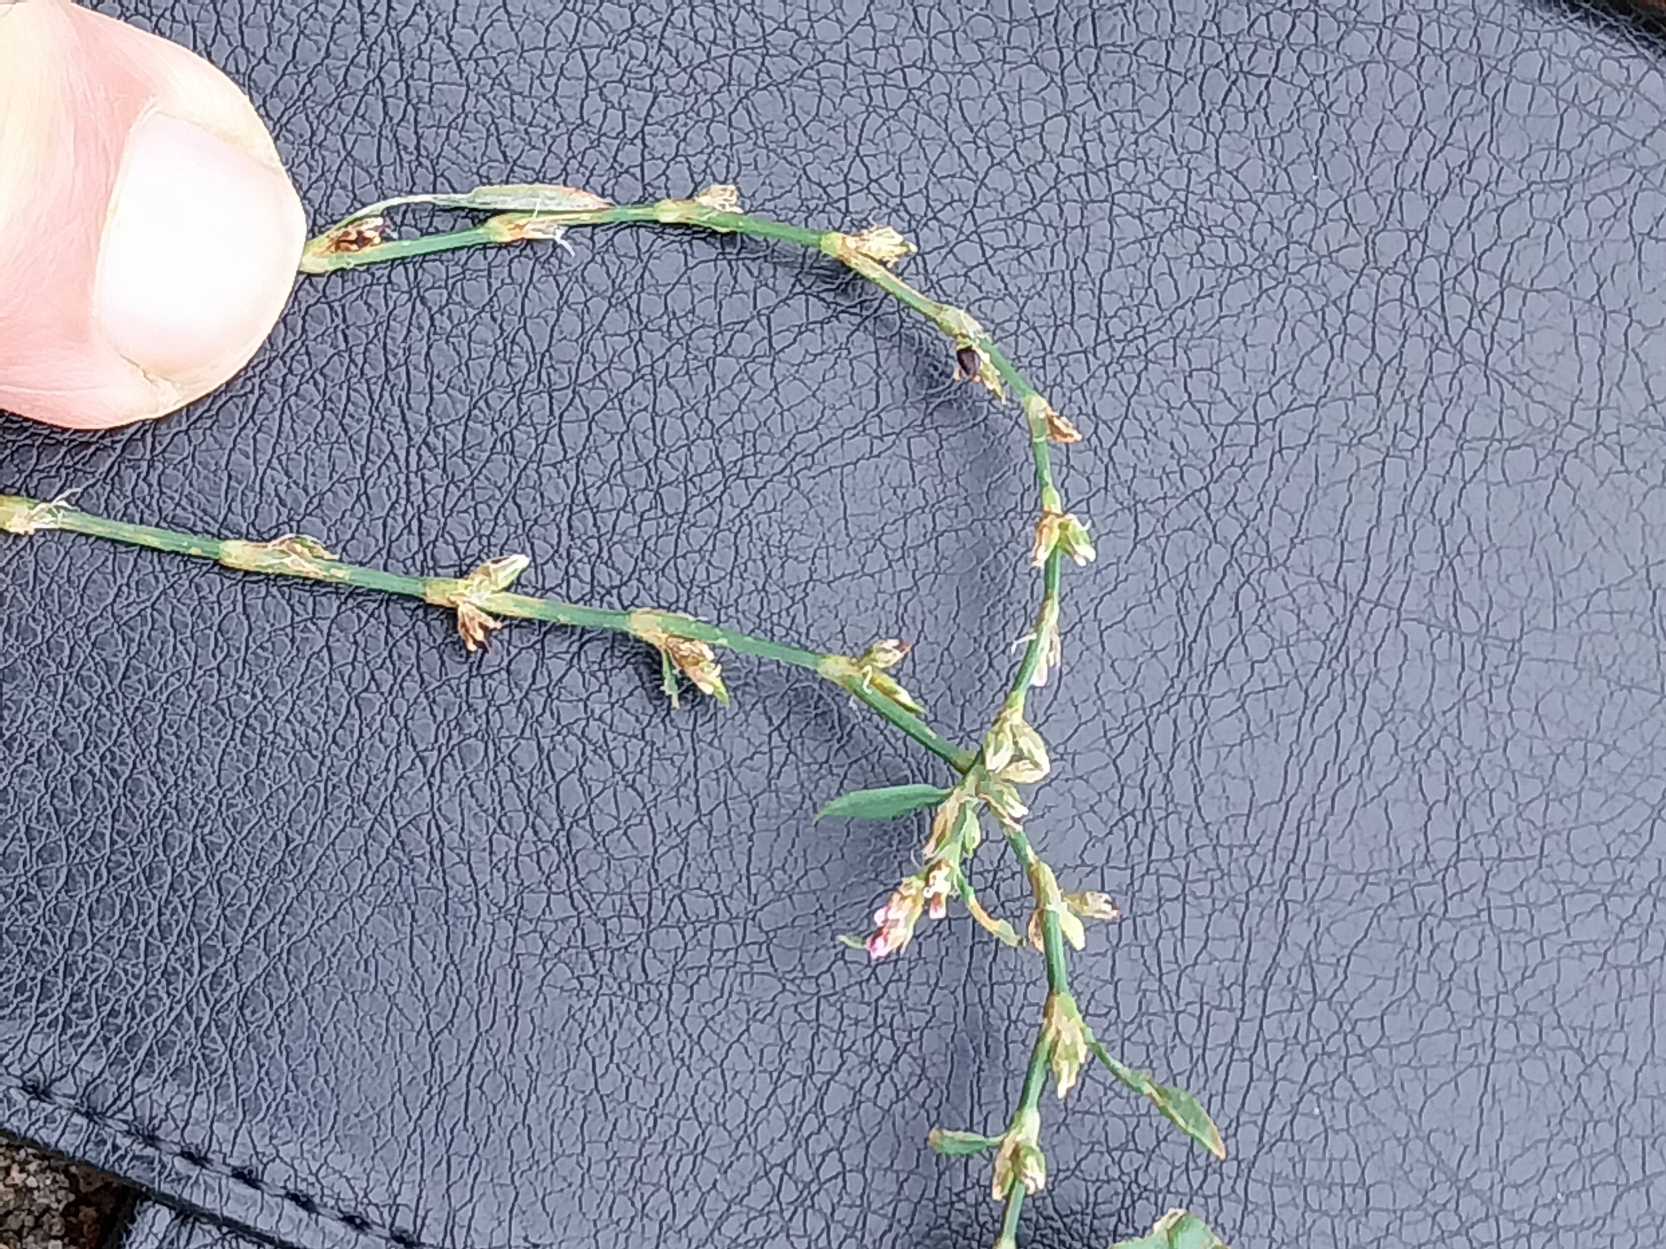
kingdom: Plantae
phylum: Tracheophyta
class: Magnoliopsida
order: Caryophyllales
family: Polygonaceae
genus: Polygonum
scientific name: Polygonum arenastrum
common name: Liggende vej-pileurt
